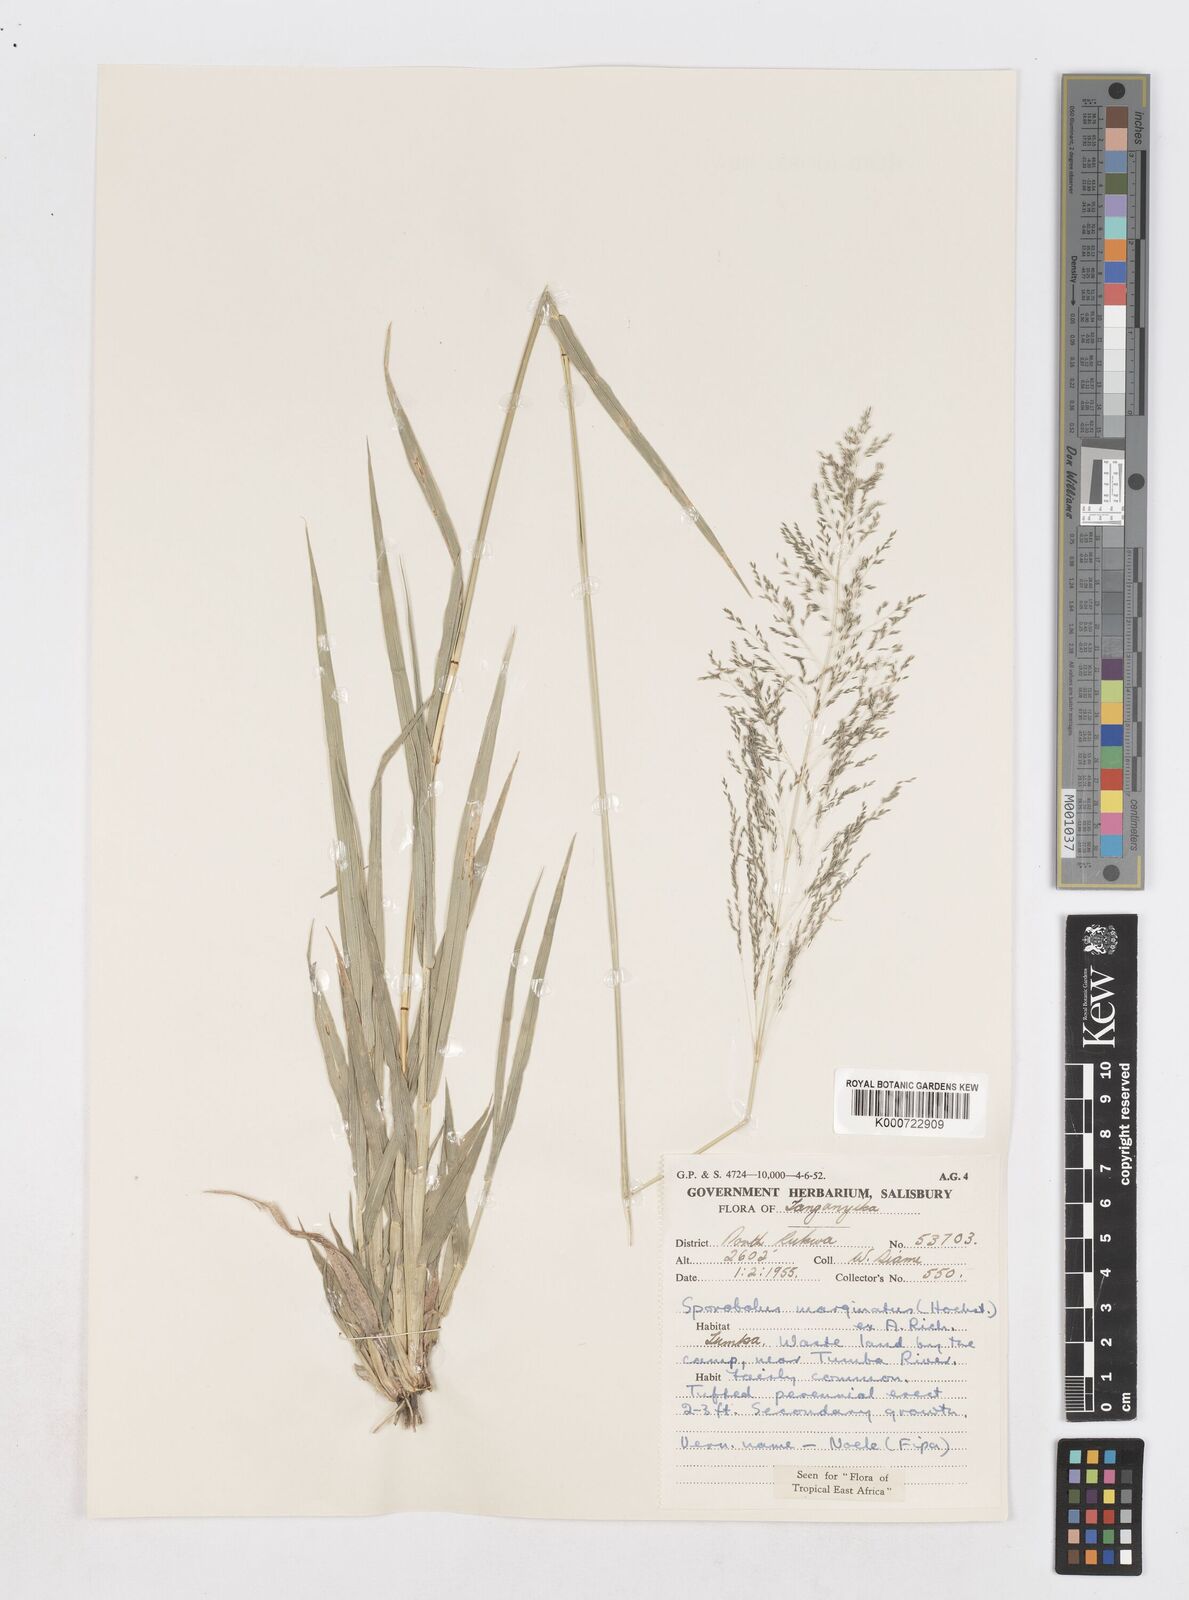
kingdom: Plantae
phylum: Tracheophyta
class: Liliopsida
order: Poales
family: Poaceae
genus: Sporobolus
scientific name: Sporobolus ioclados
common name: Pan dropseed
